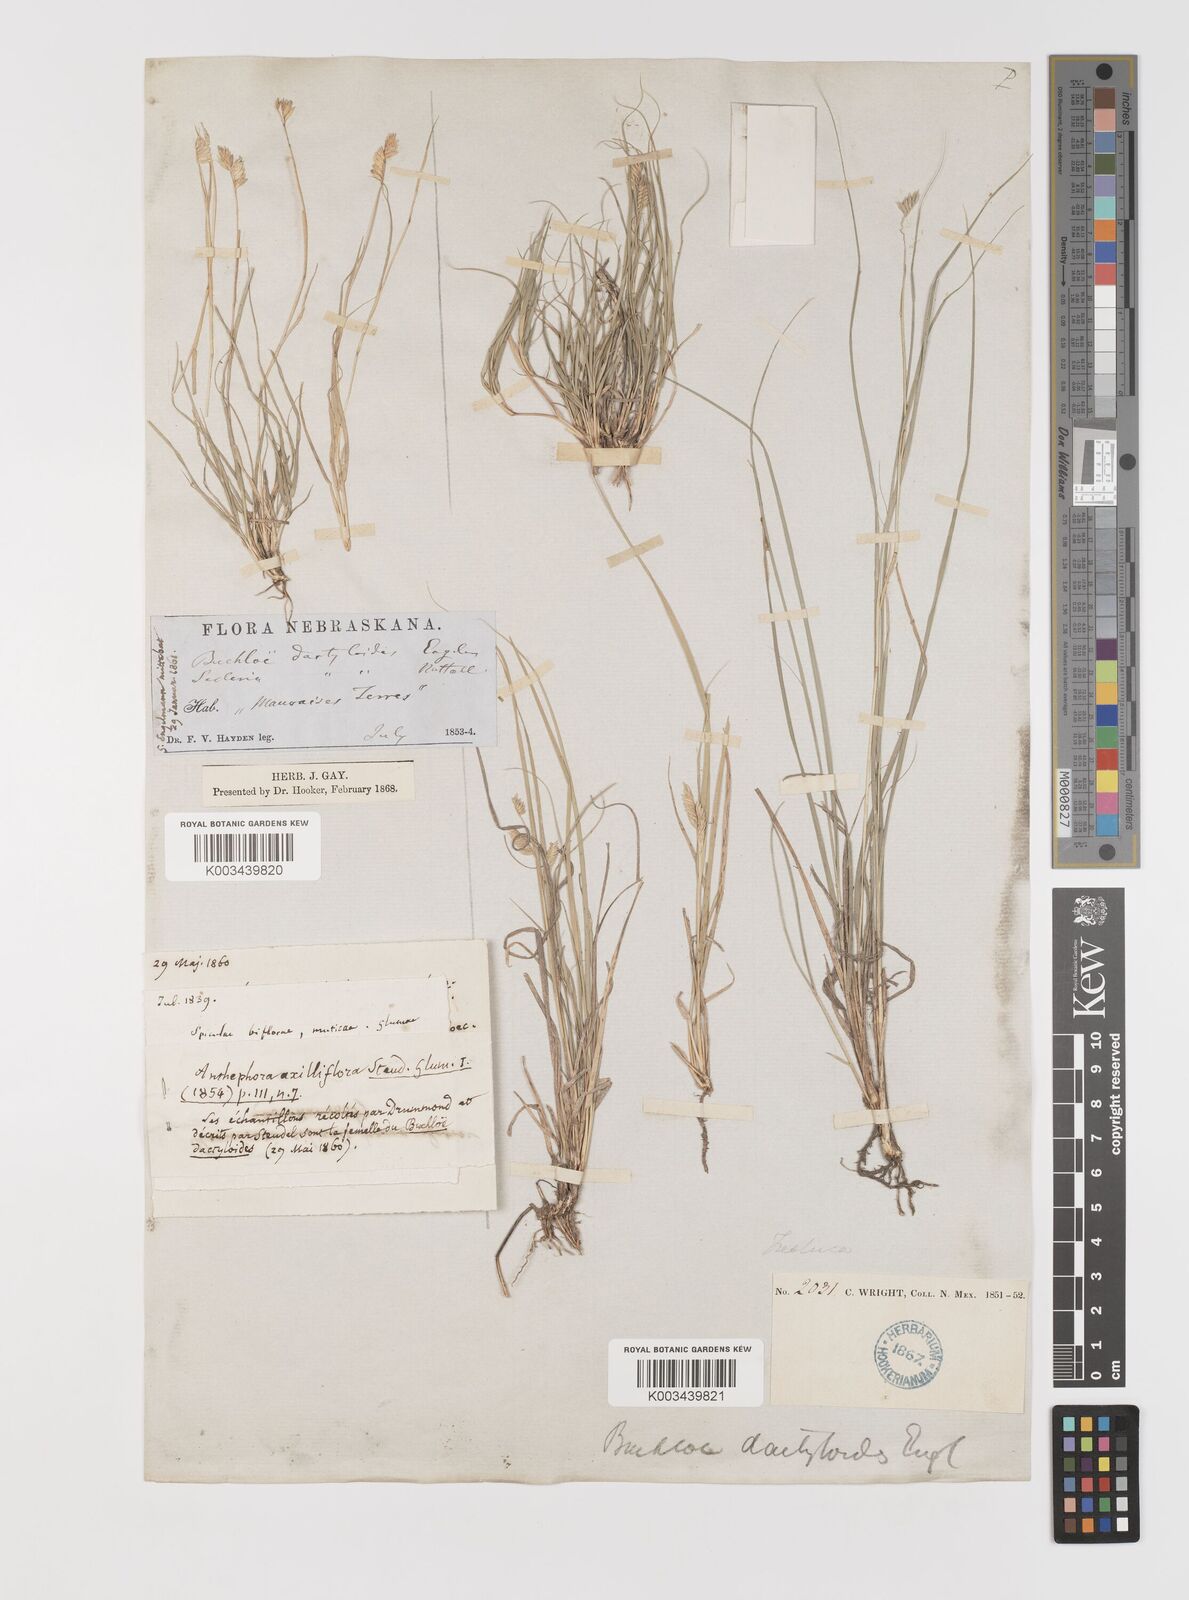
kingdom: Plantae
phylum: Tracheophyta
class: Liliopsida
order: Poales
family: Poaceae
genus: Bouteloua
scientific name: Bouteloua dactyloides
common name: Buffalo grass
